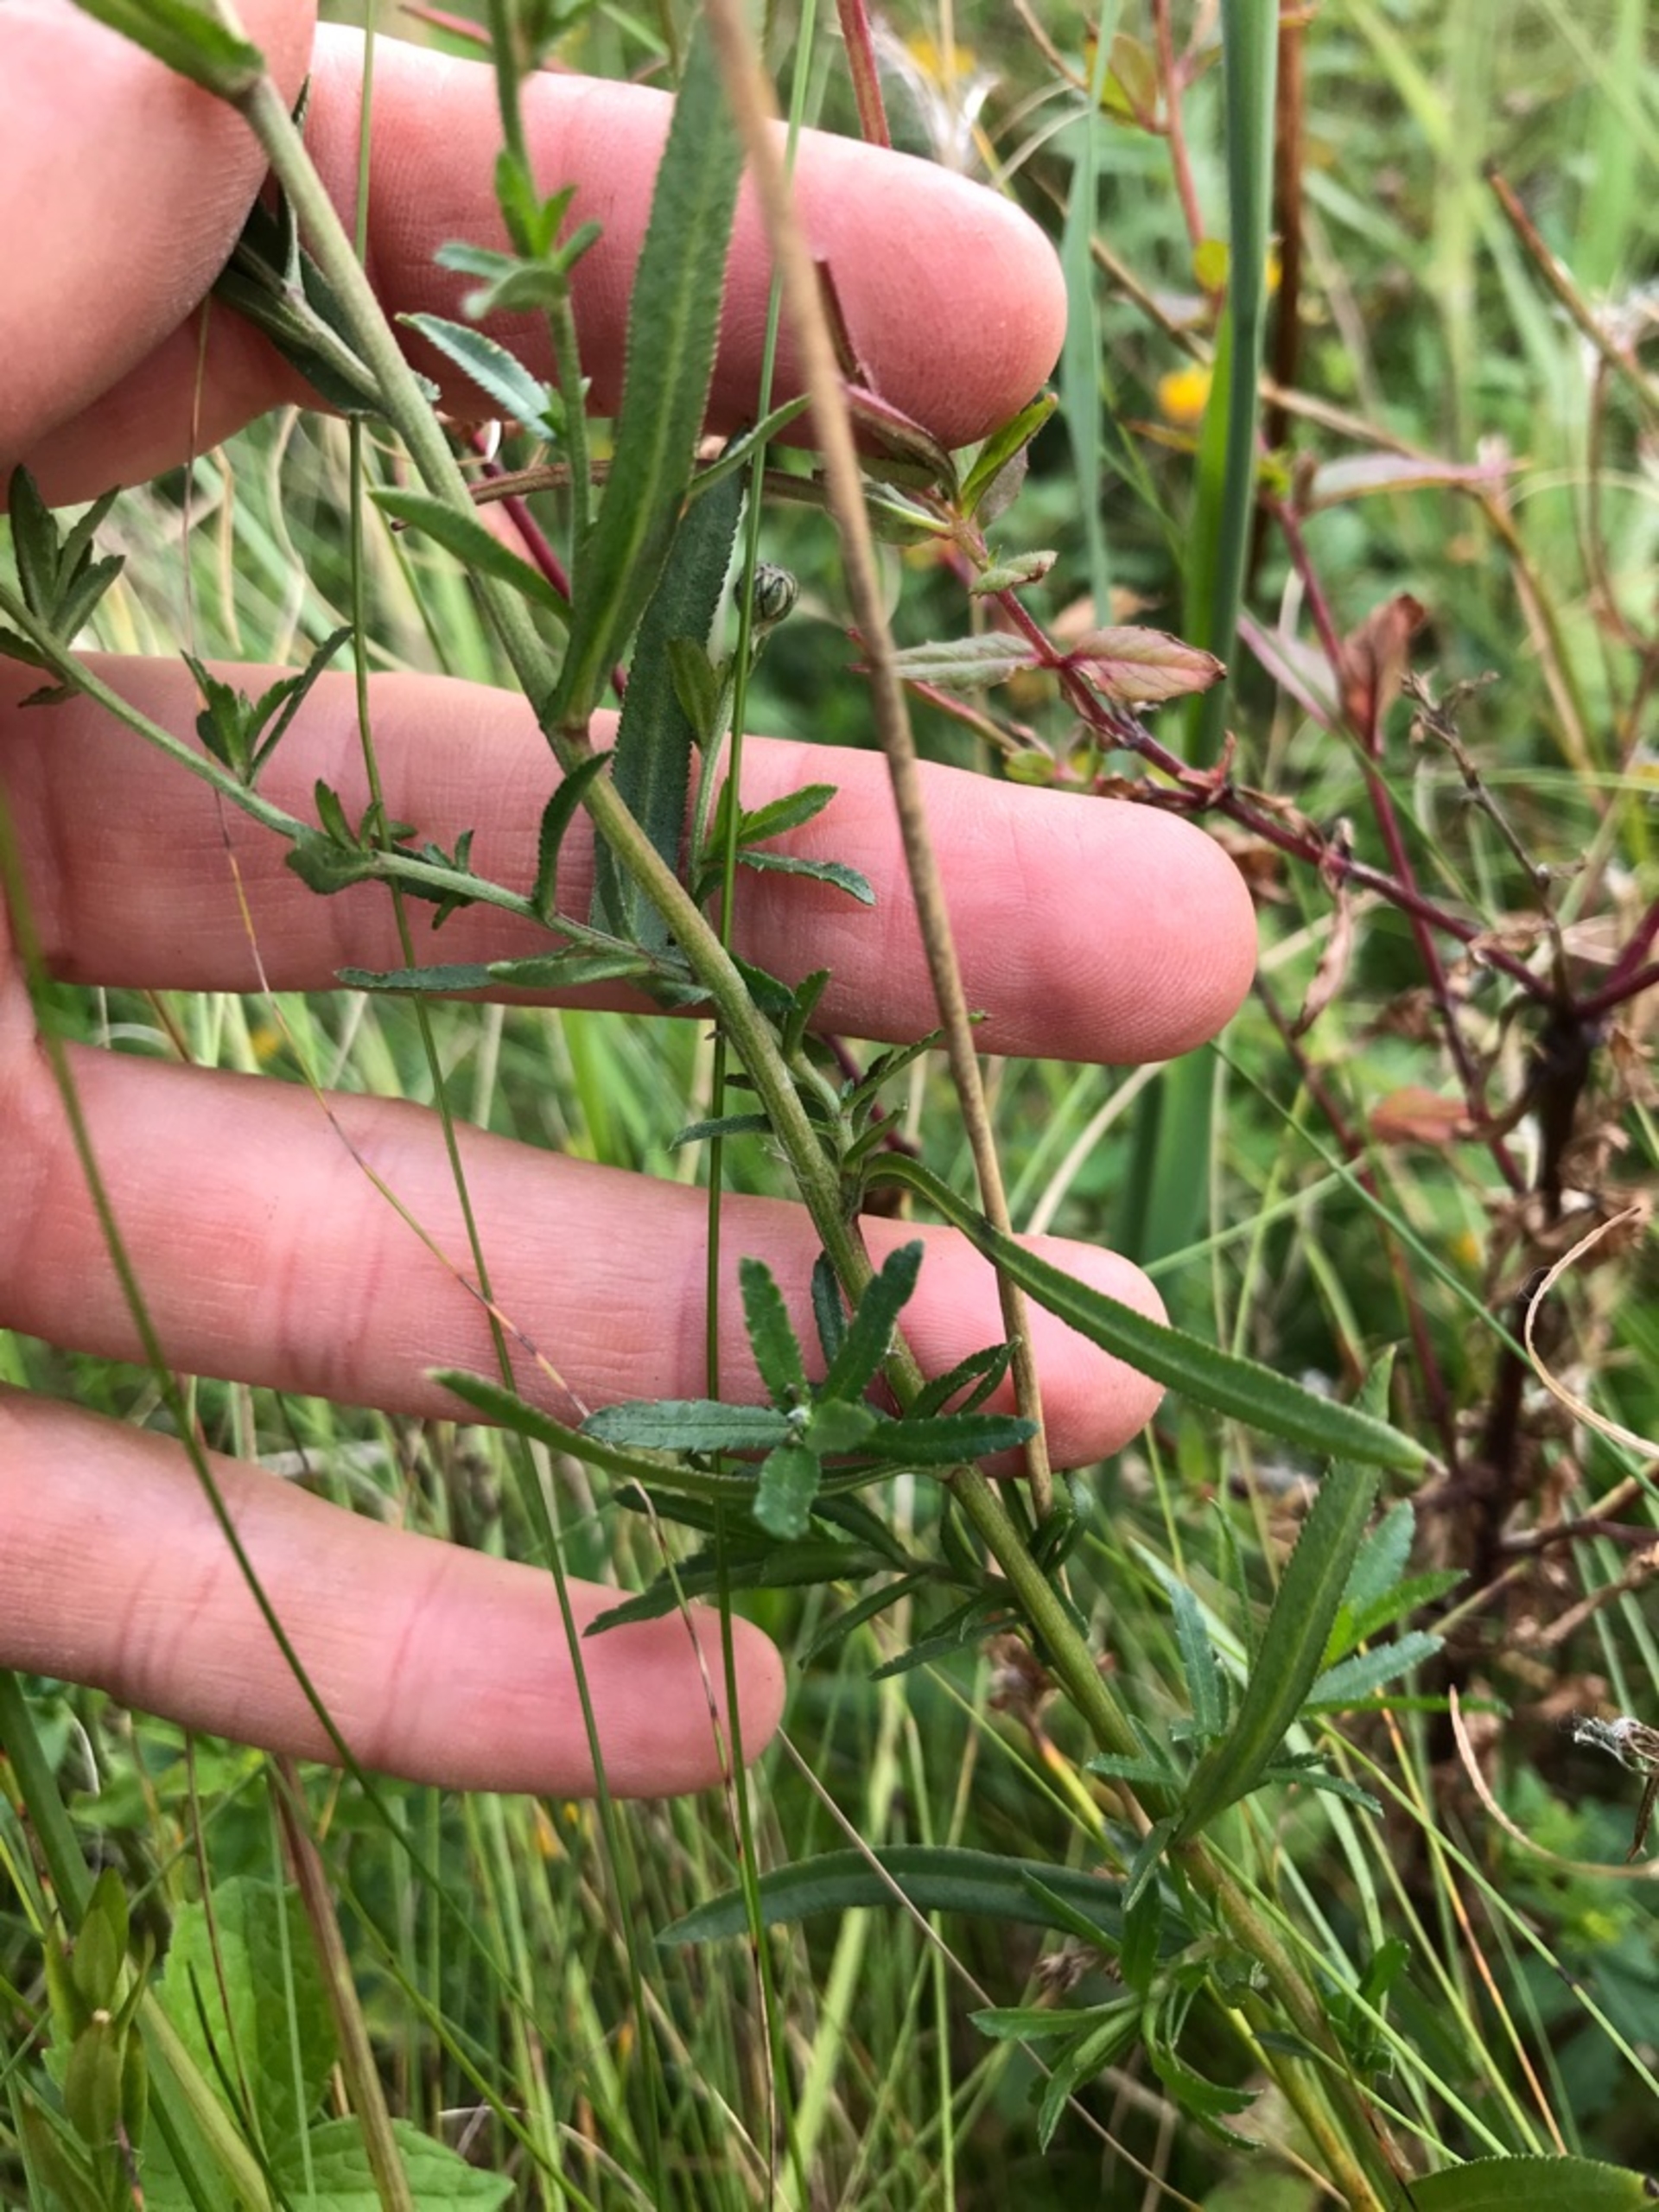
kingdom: Plantae
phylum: Tracheophyta
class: Magnoliopsida
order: Asterales
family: Asteraceae
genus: Achillea
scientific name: Achillea ptarmica
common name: Nyse-røllike
